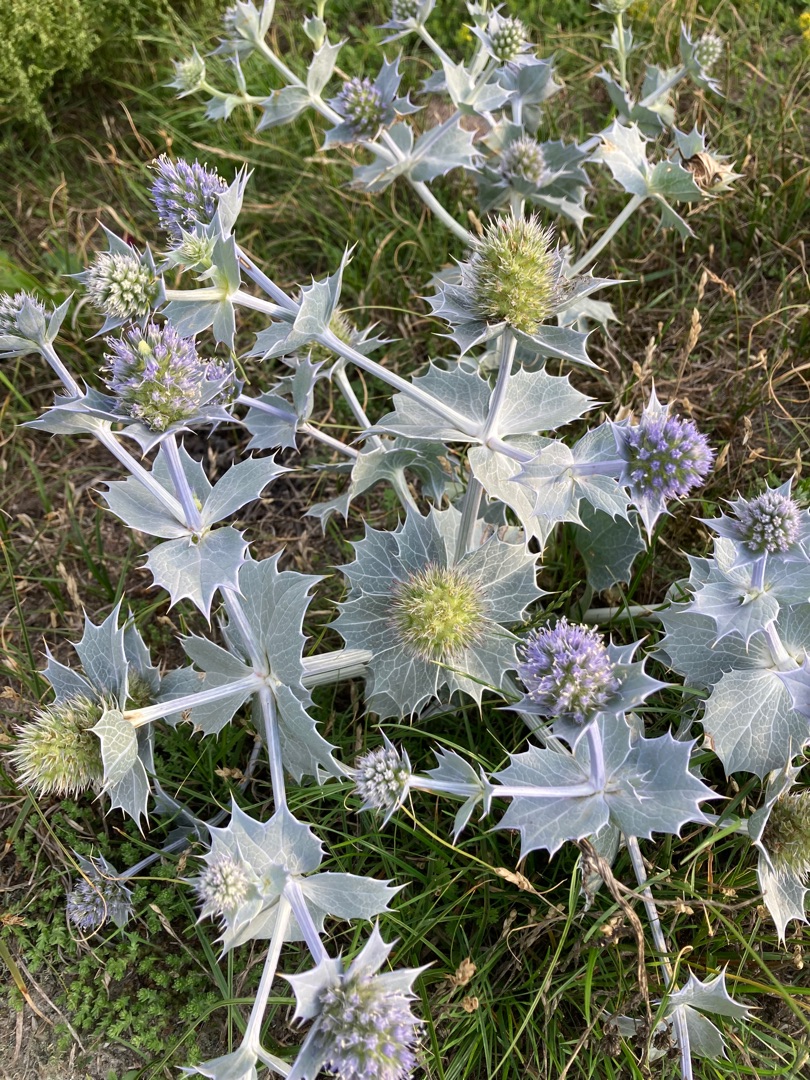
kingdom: Plantae
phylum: Tracheophyta
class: Magnoliopsida
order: Apiales
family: Apiaceae
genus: Eryngium
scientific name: Eryngium maritimum
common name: Strand-mandstro
